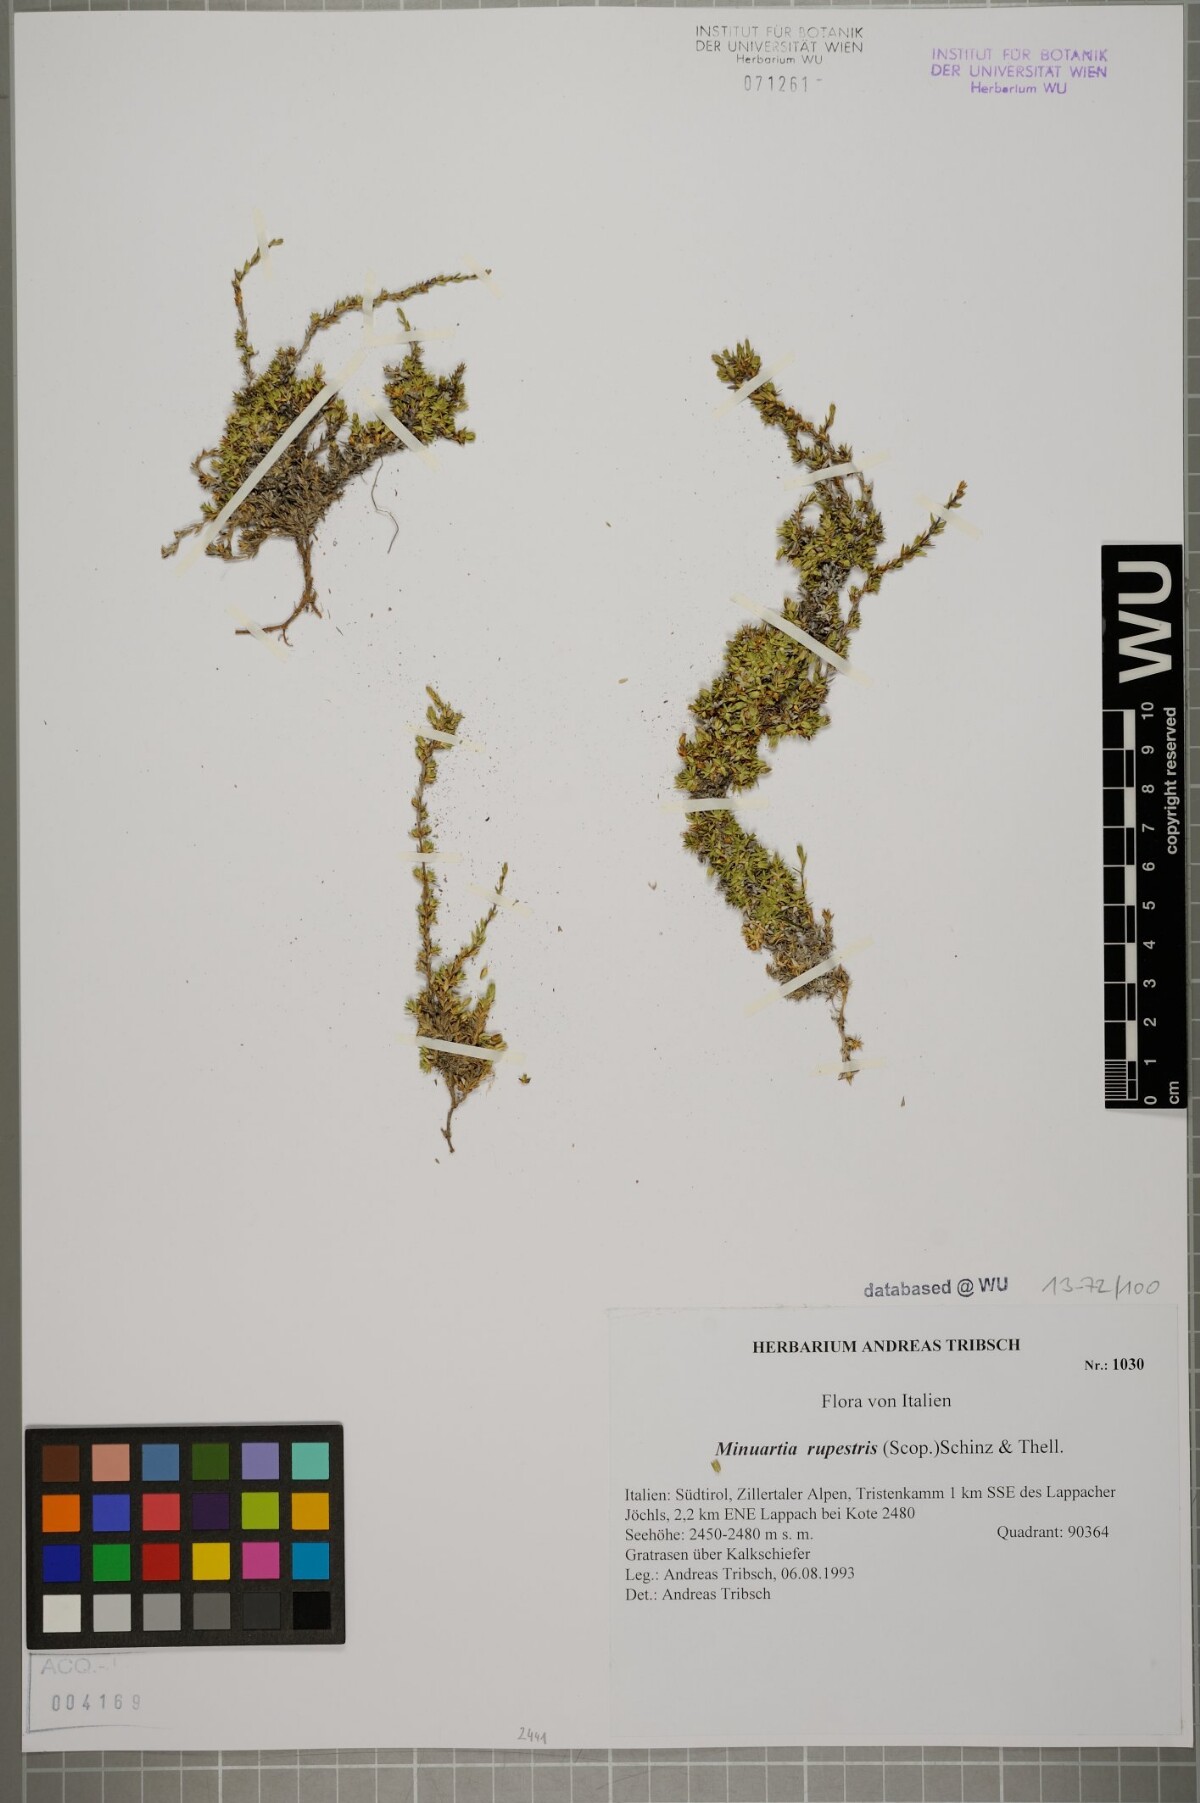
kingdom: Plantae
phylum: Tracheophyta
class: Magnoliopsida
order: Caryophyllales
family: Caryophyllaceae
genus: Facchinia
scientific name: Facchinia rupestris
